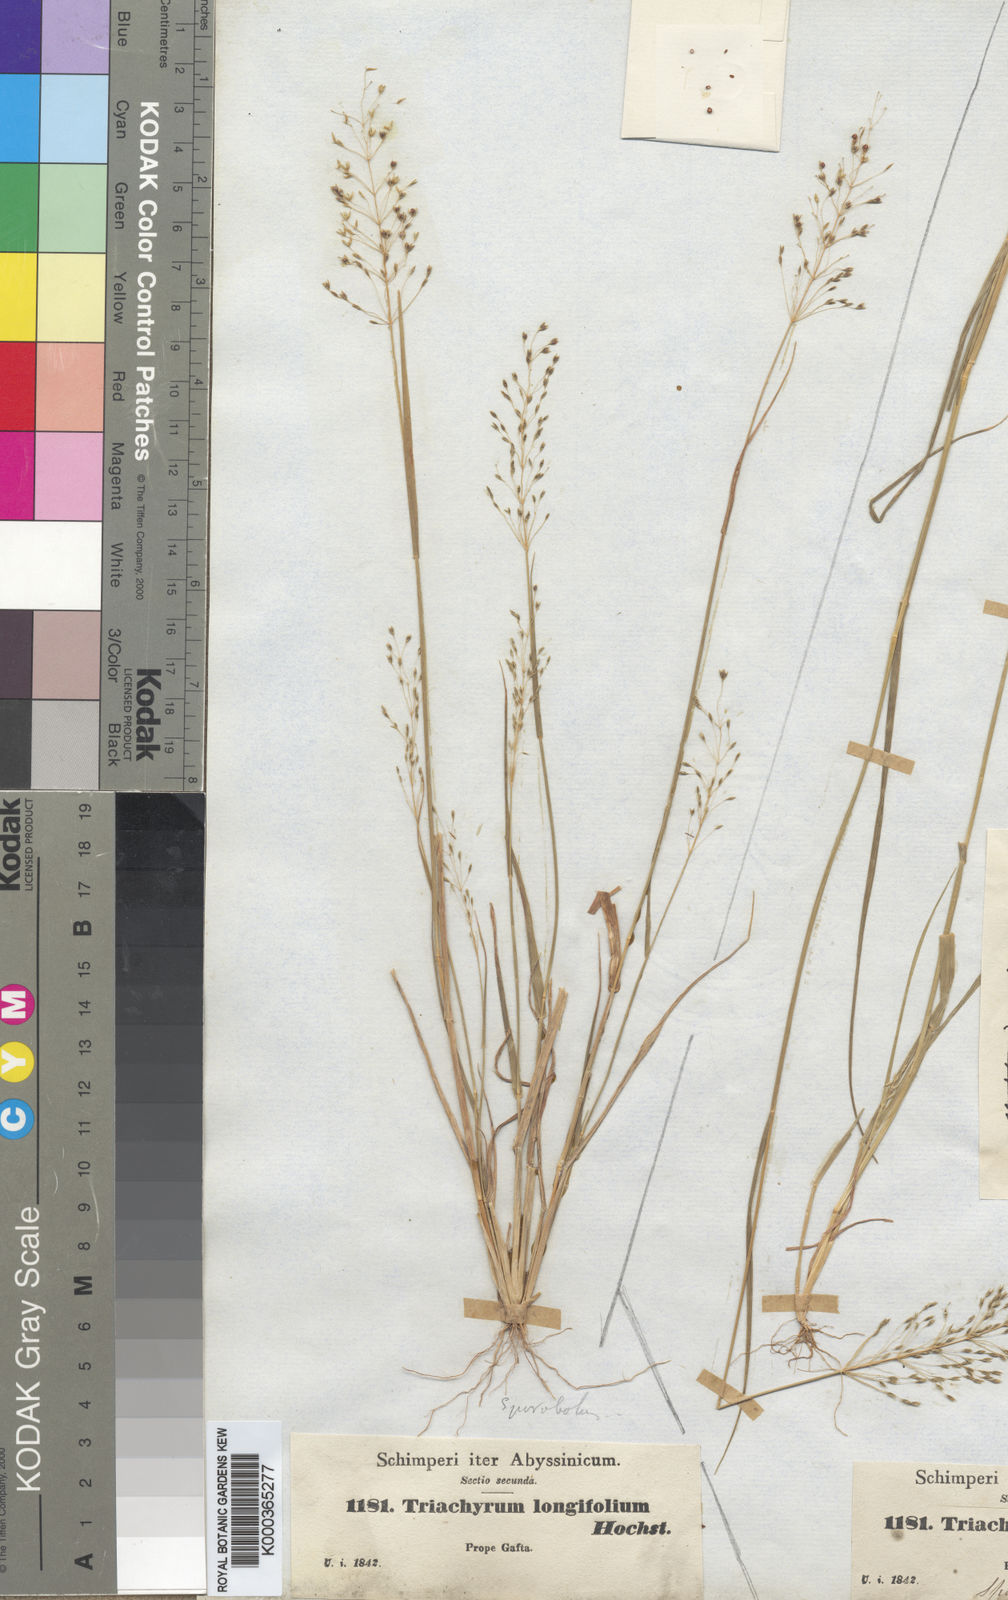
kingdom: Plantae
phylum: Tracheophyta
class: Liliopsida
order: Poales
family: Poaceae
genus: Sporobolus
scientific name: Sporobolus panicoides
